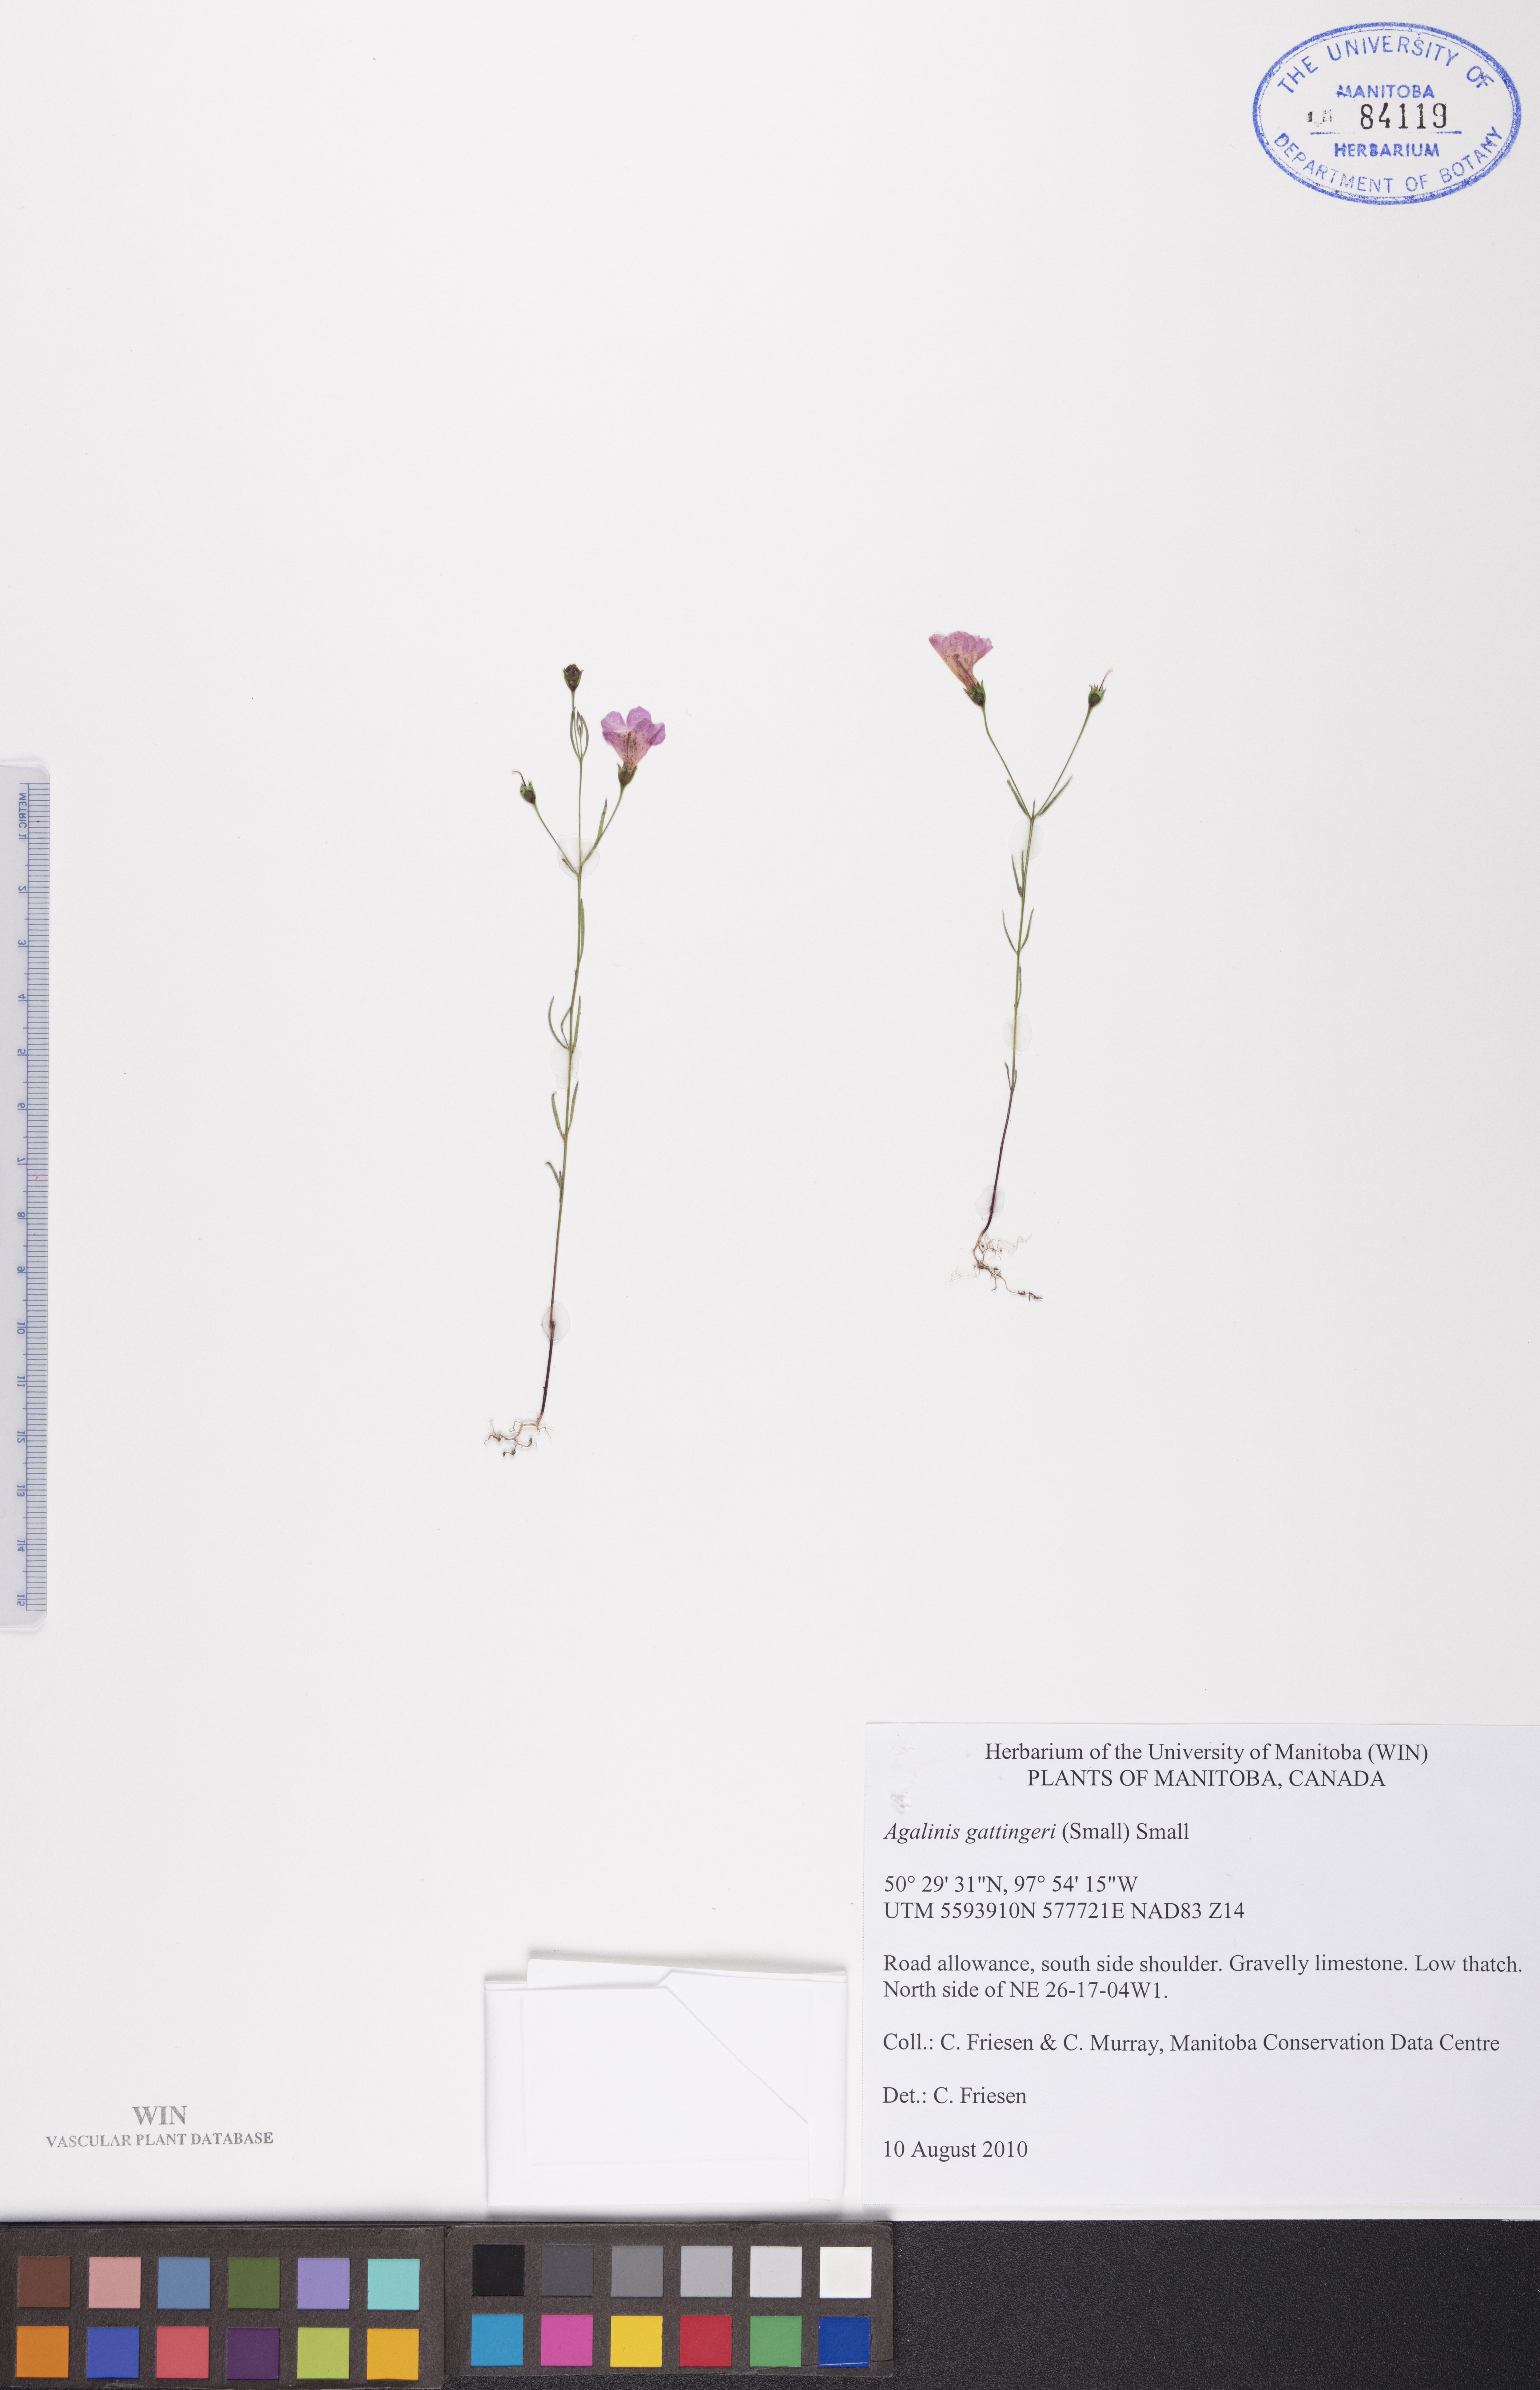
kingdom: Plantae
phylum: Tracheophyta
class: Magnoliopsida
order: Lamiales
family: Orobanchaceae
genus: Agalinis
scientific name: Agalinis gattingeri
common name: Gattinger's agalinis
